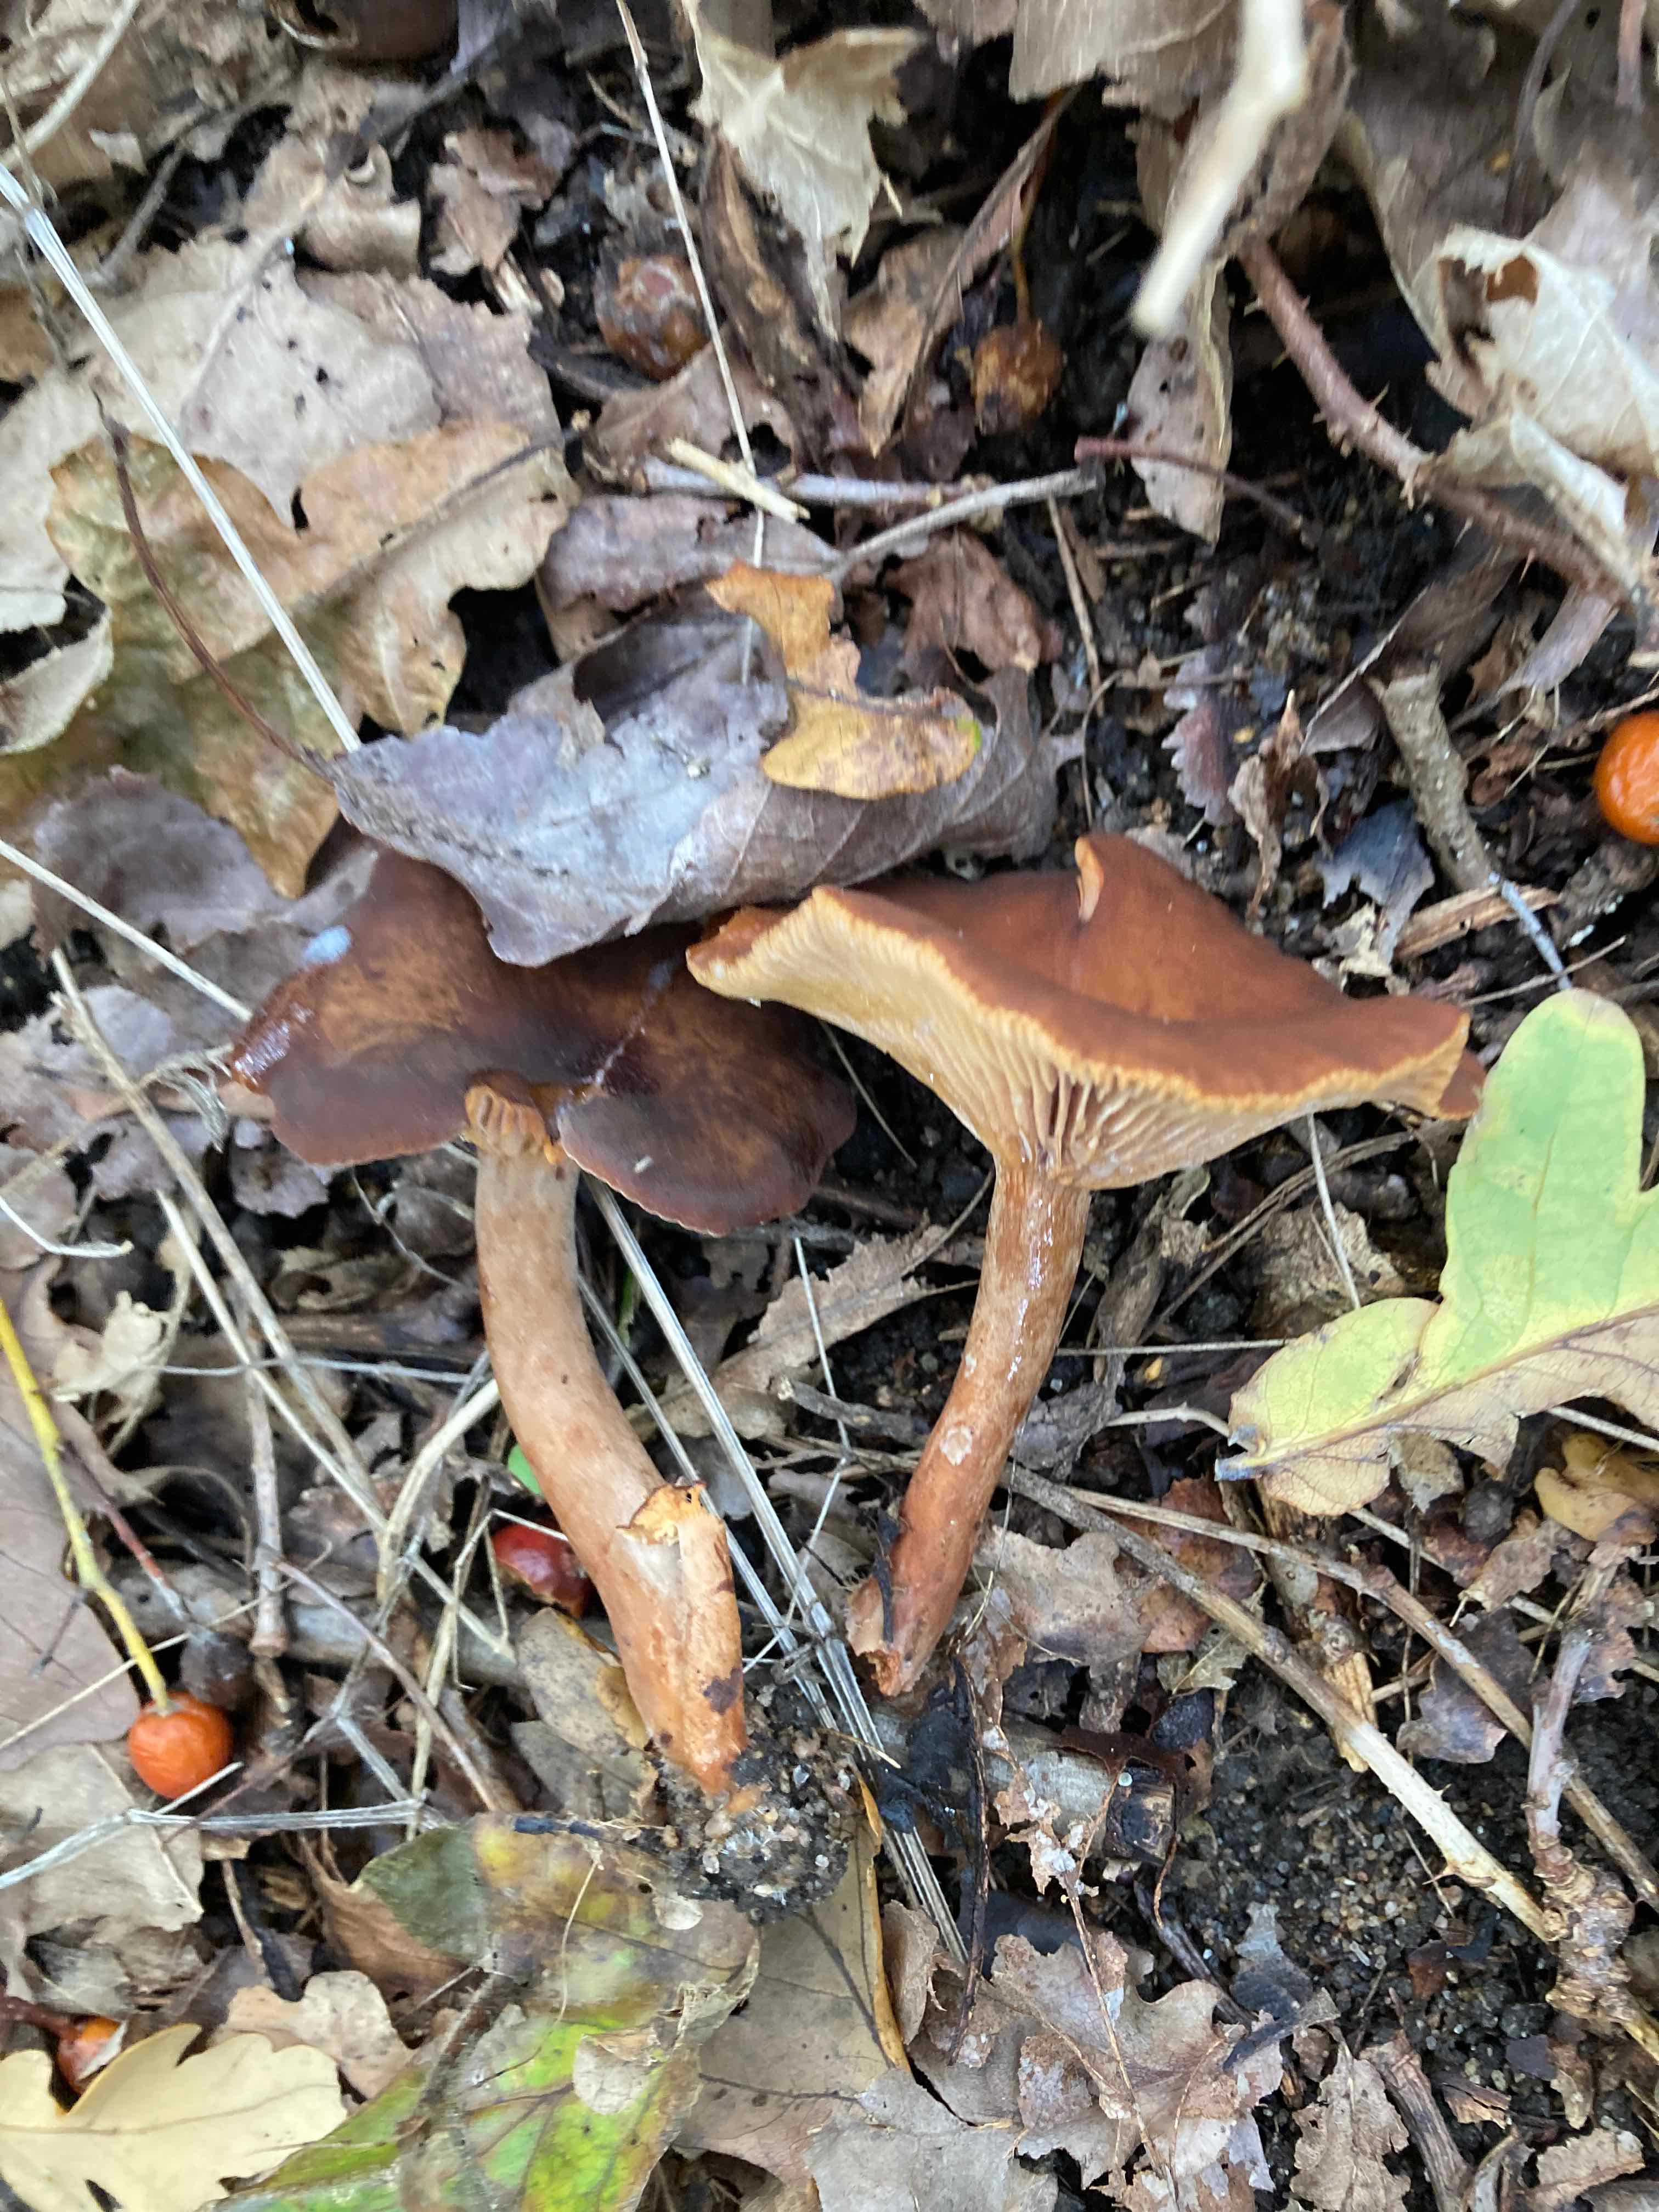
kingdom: Fungi
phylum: Basidiomycota
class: Agaricomycetes
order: Russulales
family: Russulaceae
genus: Lactarius
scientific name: Lactarius serifluus
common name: tæge-mælkehat
